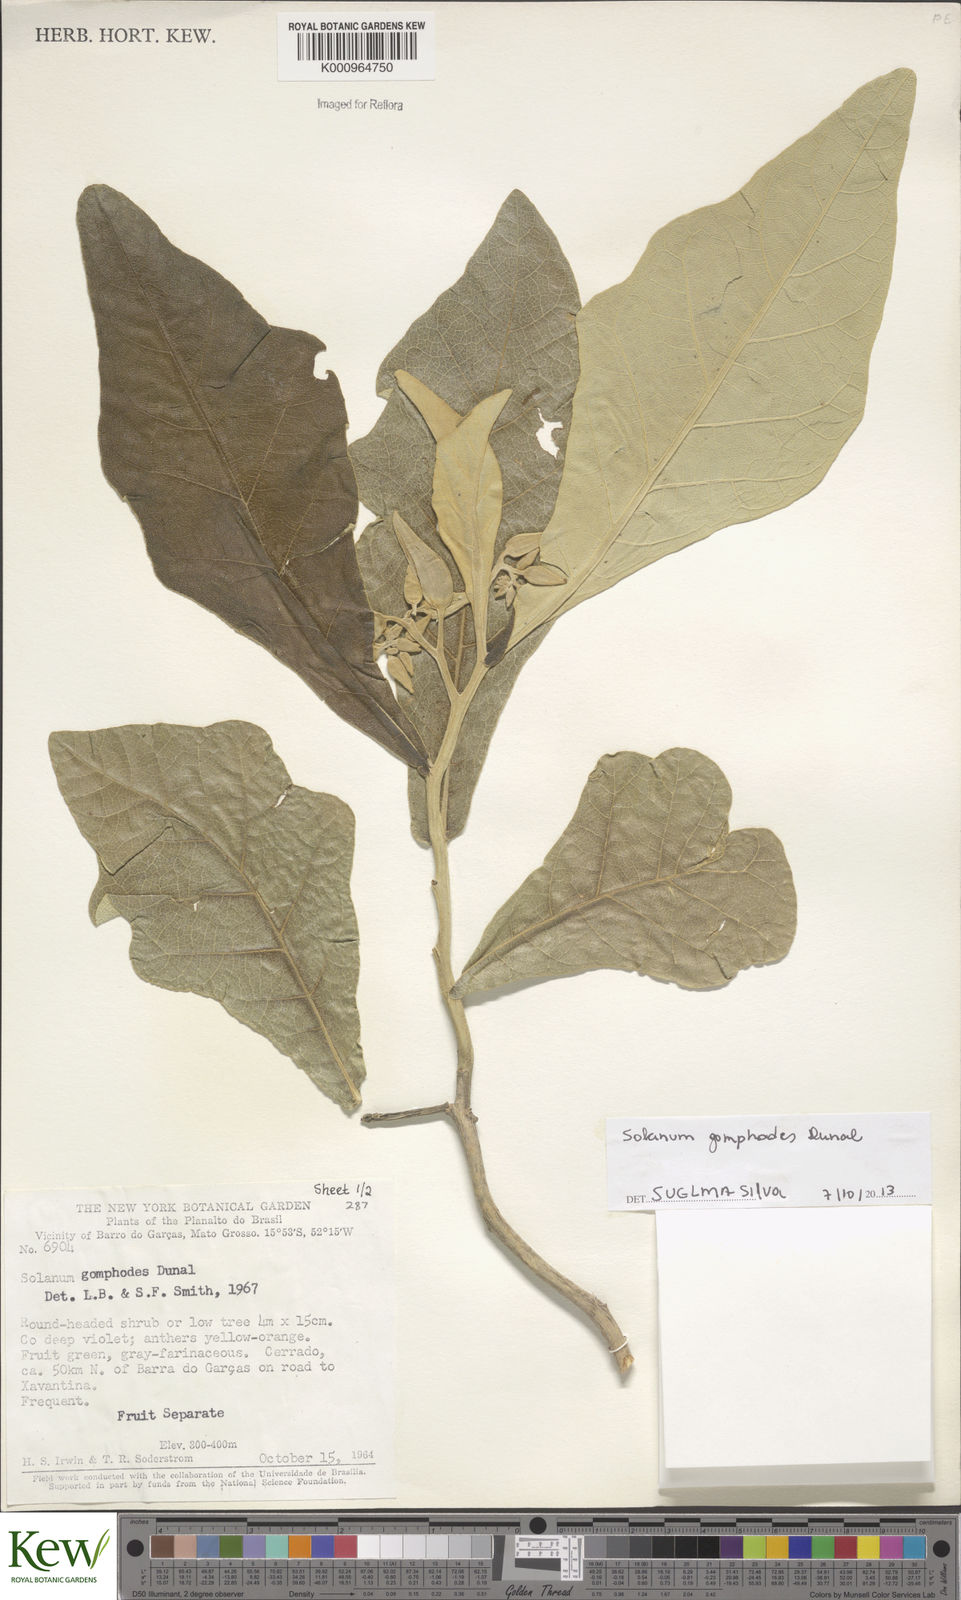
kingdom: Plantae
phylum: Tracheophyta
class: Magnoliopsida
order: Solanales
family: Solanaceae
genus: Solanum
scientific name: Solanum gomphodes
